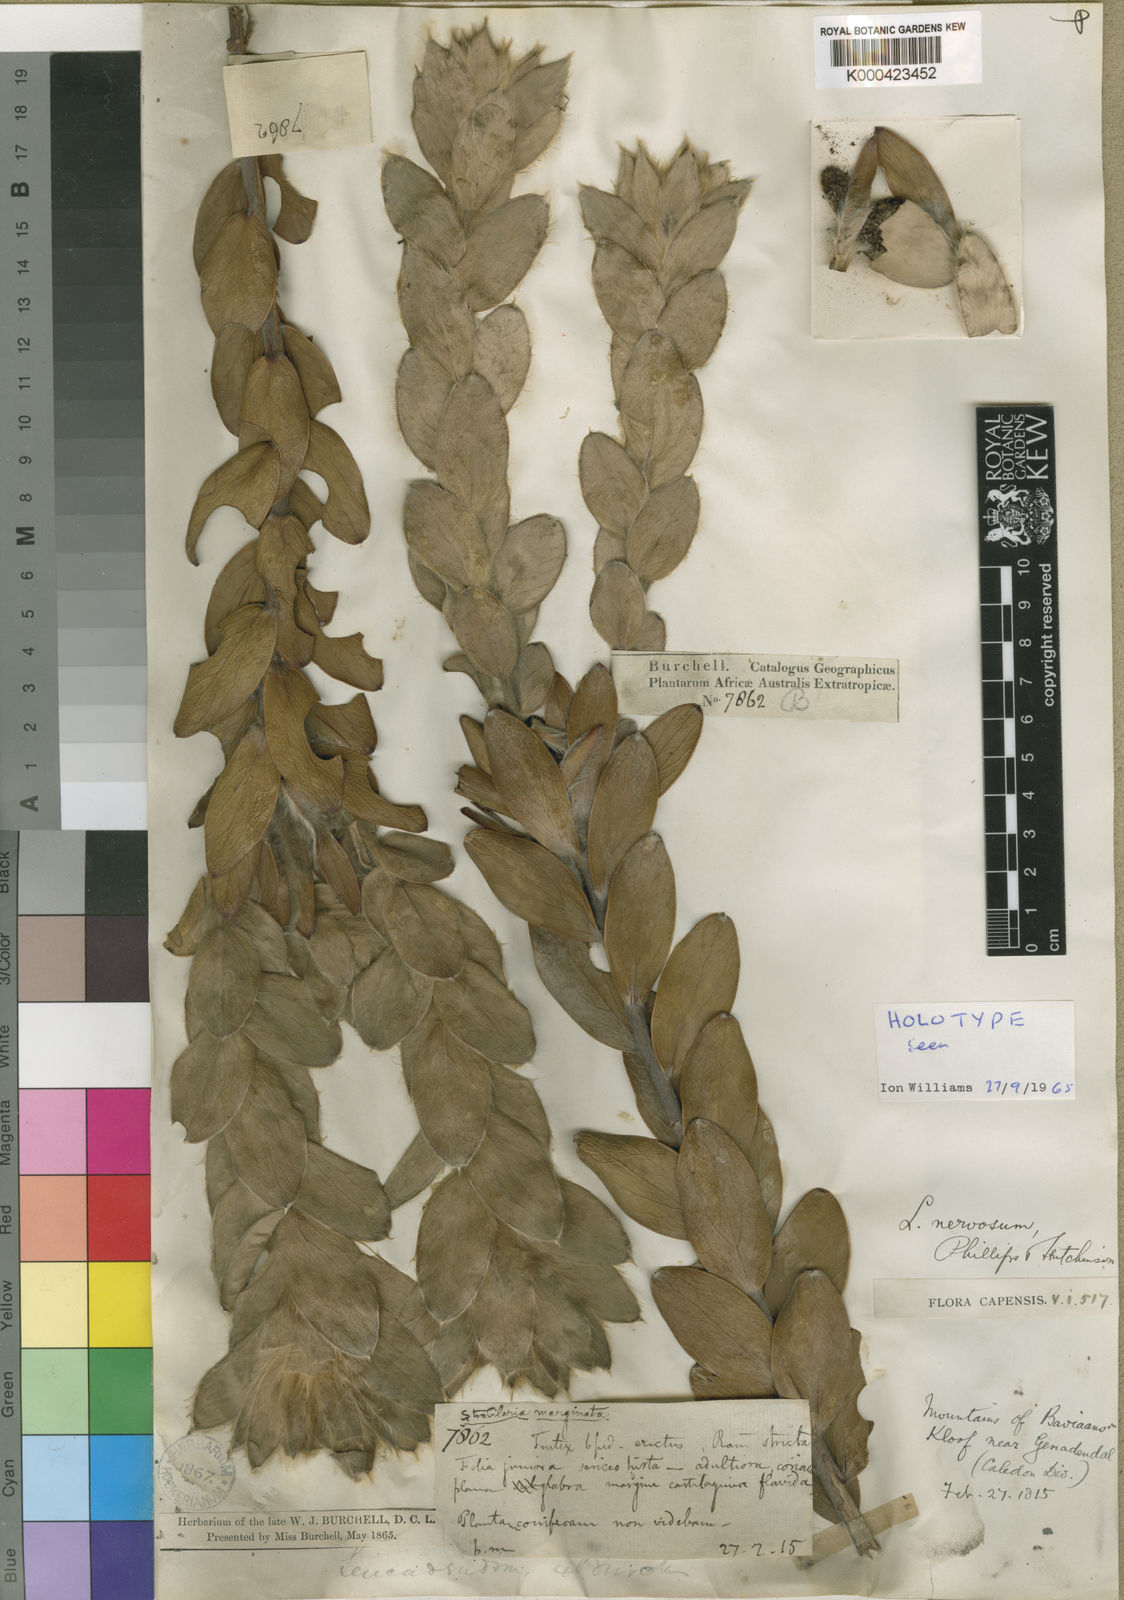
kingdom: Plantae
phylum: Tracheophyta
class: Magnoliopsida
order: Proteales
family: Proteaceae
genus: Leucadendron
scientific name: Leucadendron nervosum
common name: Silky-ruff conebush
